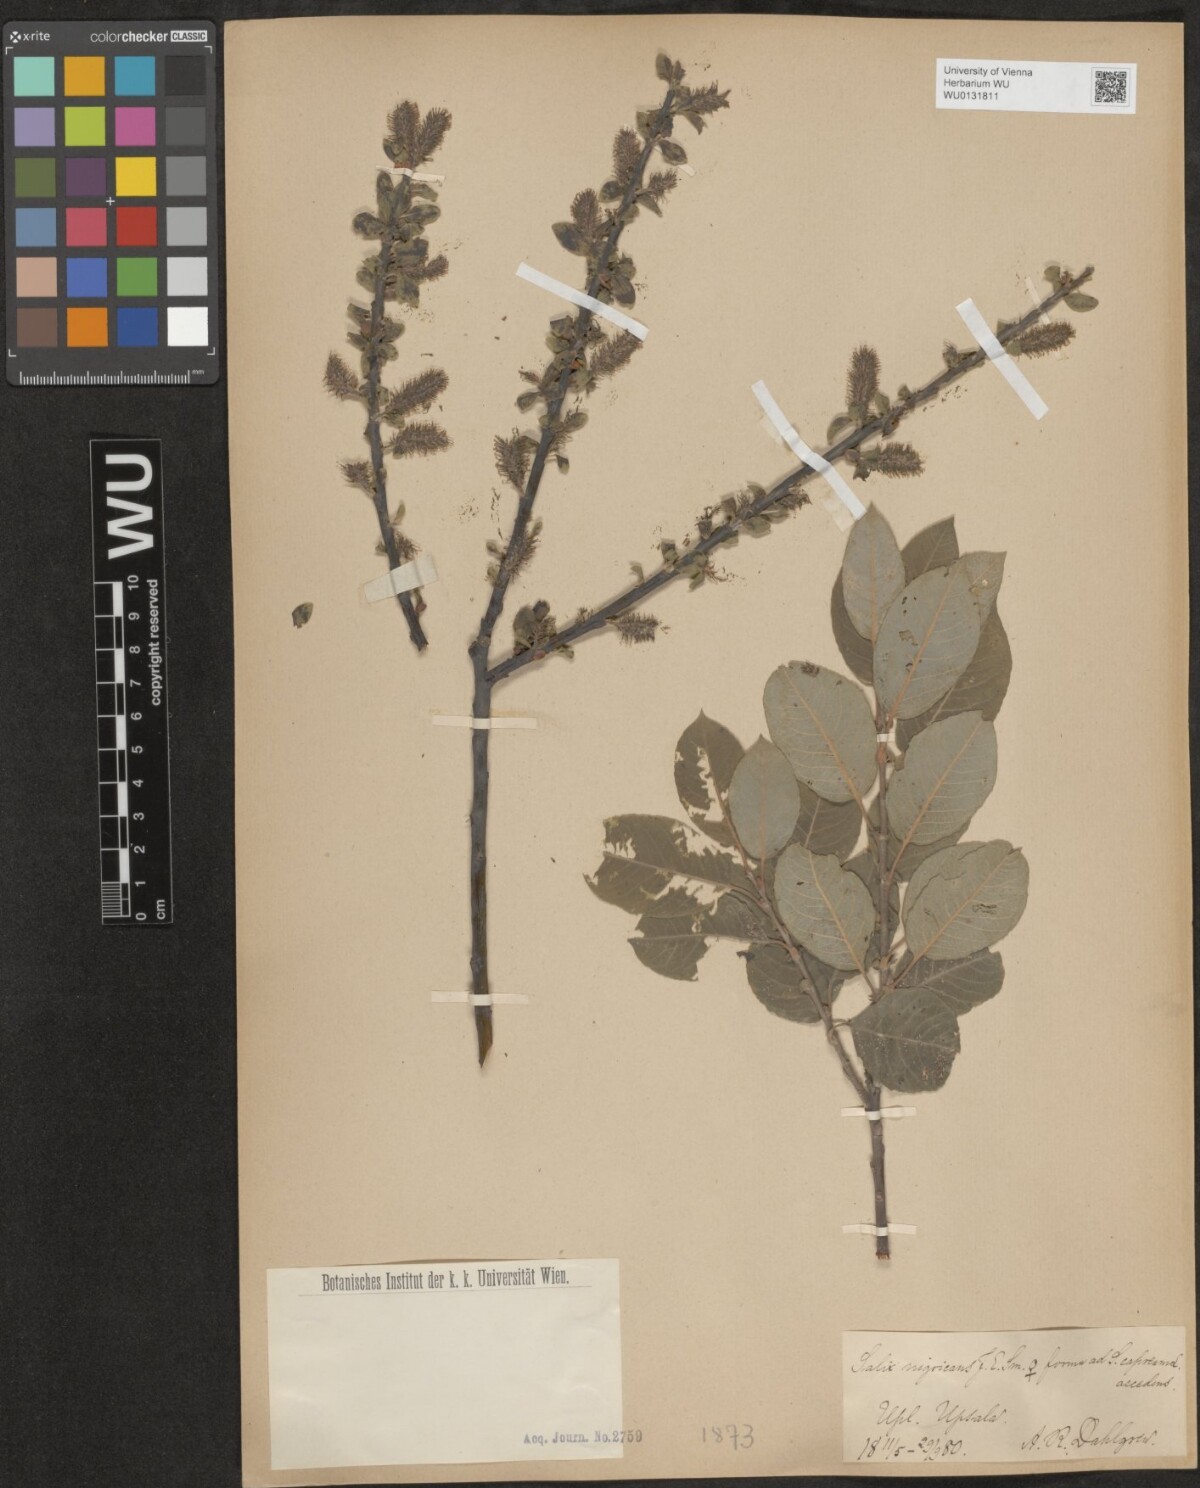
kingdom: Plantae
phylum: Tracheophyta
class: Magnoliopsida
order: Malpighiales
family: Salicaceae
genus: Salix
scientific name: Salix myrsinifolia
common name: Dark-leaved willow
